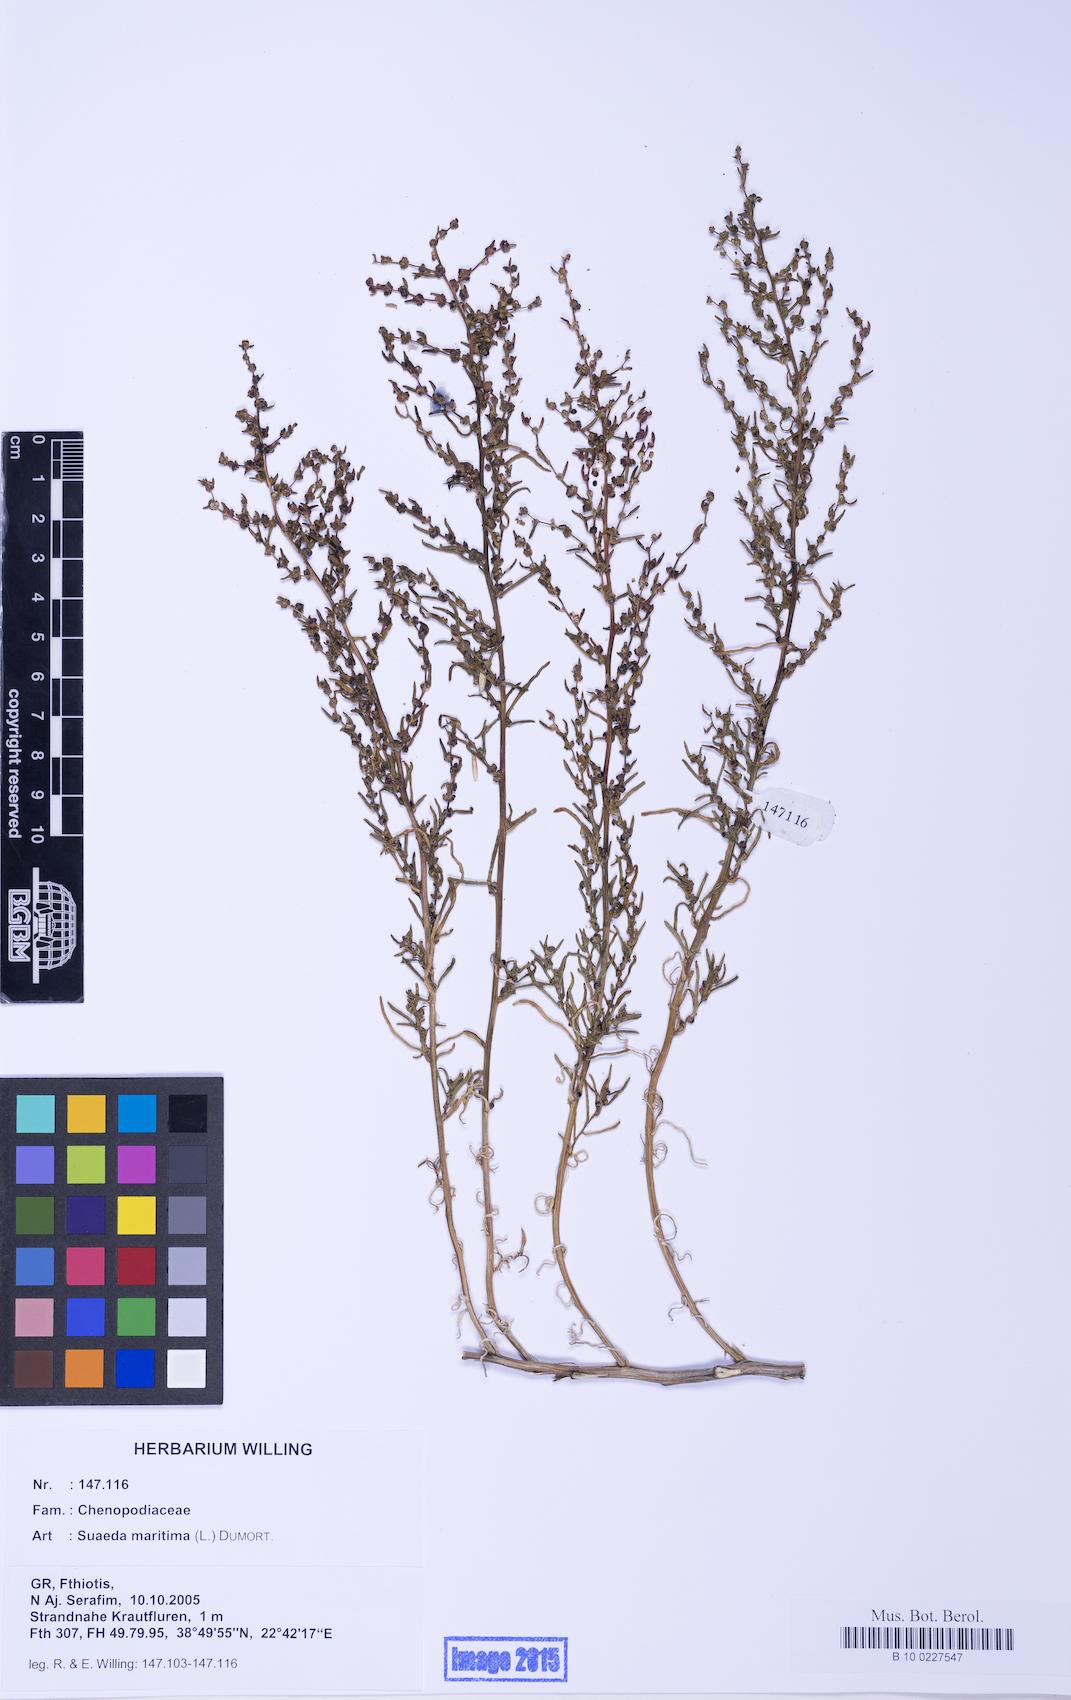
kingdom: Plantae
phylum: Tracheophyta
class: Magnoliopsida
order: Caryophyllales
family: Amaranthaceae
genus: Suaeda
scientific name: Suaeda maritima
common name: Annual sea-blite
